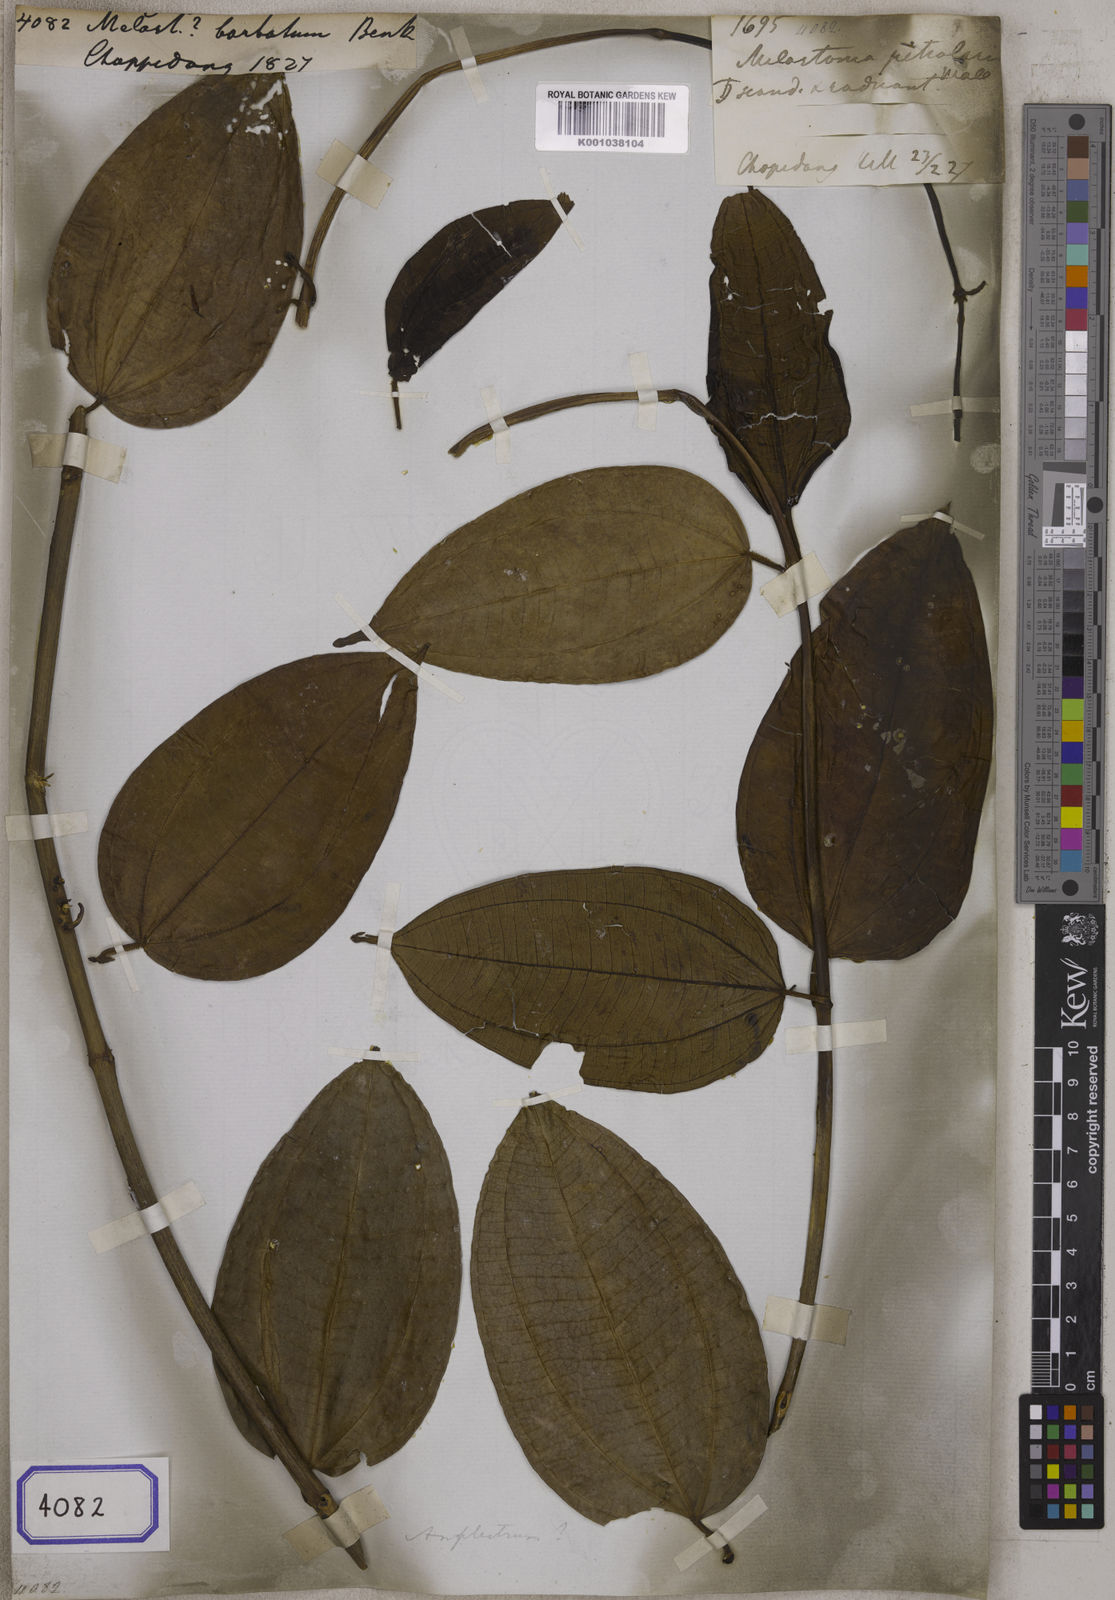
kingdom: Plantae
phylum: Tracheophyta
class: Magnoliopsida
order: Myrtales
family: Melastomataceae
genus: Melastoma
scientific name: Melastoma barbatum
